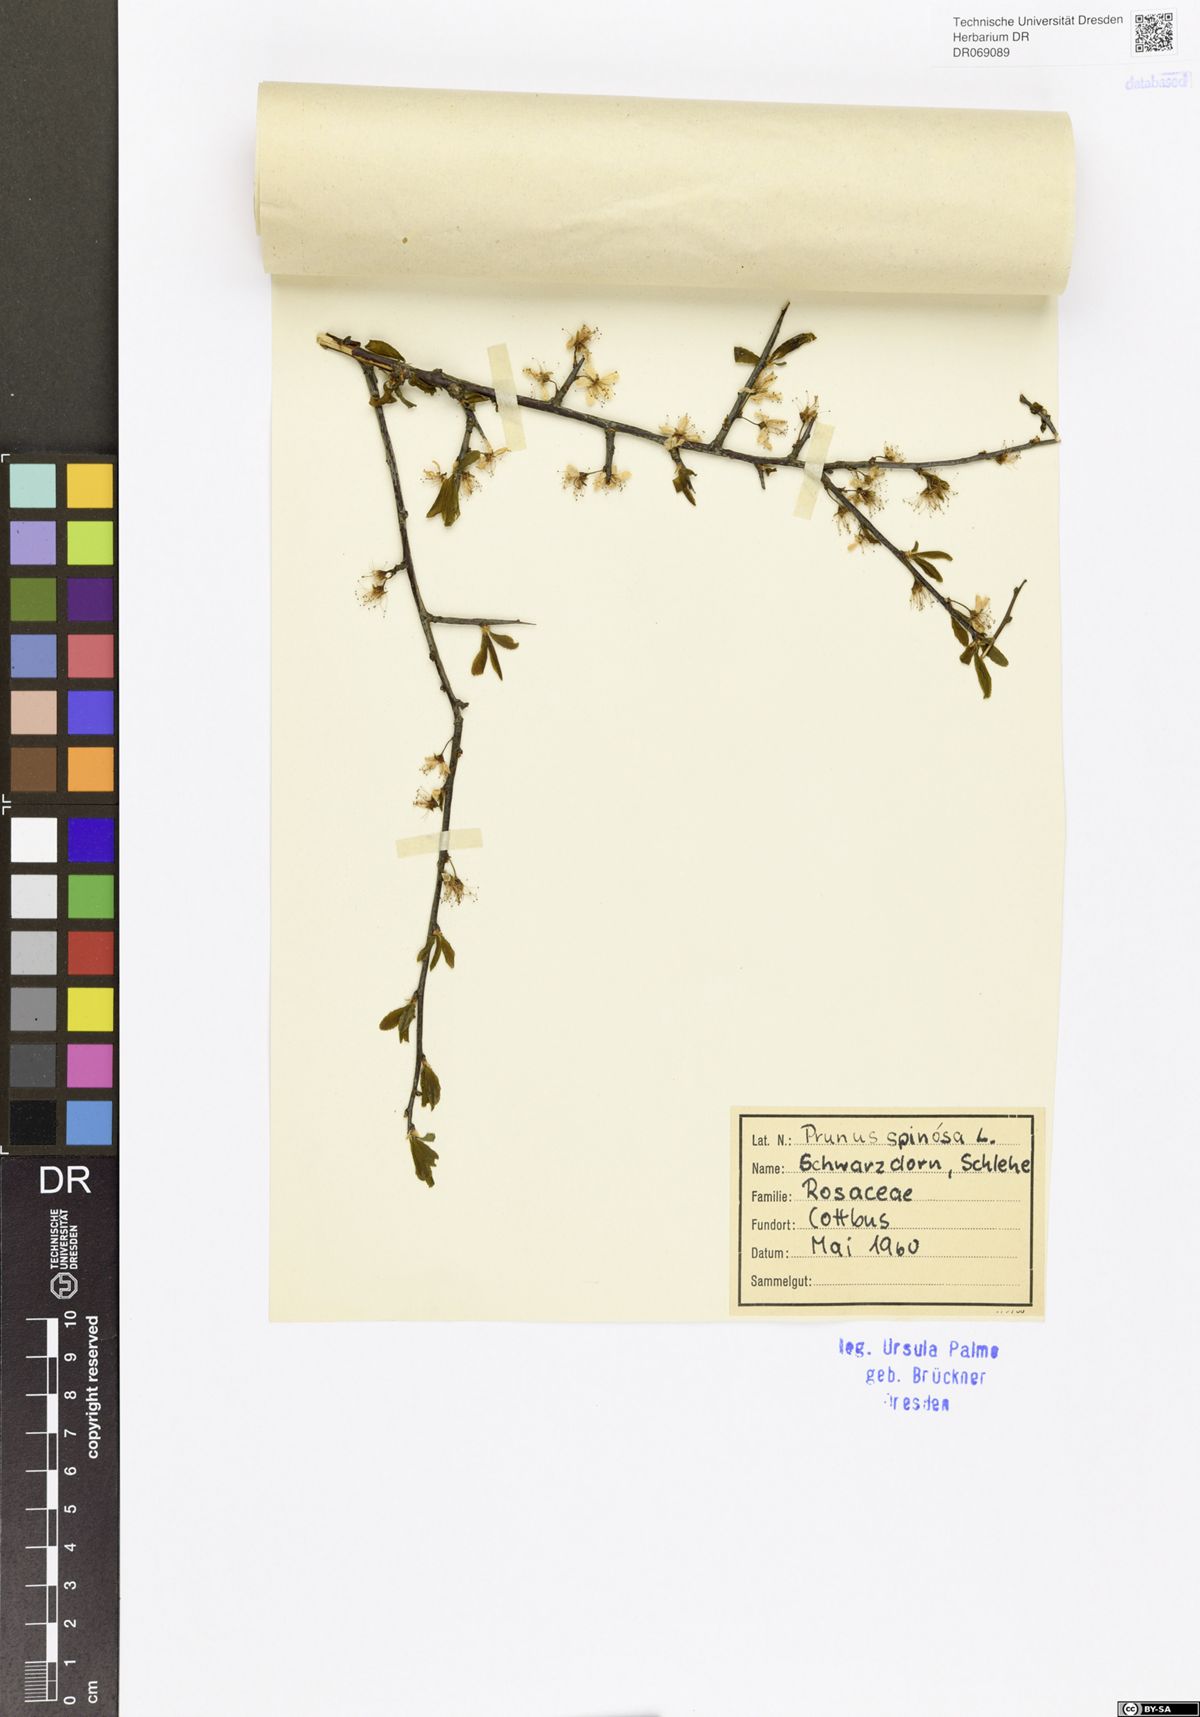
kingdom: Plantae
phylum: Tracheophyta
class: Magnoliopsida
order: Rosales
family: Rosaceae
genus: Prunus
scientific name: Prunus spinosa
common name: Blackthorn
